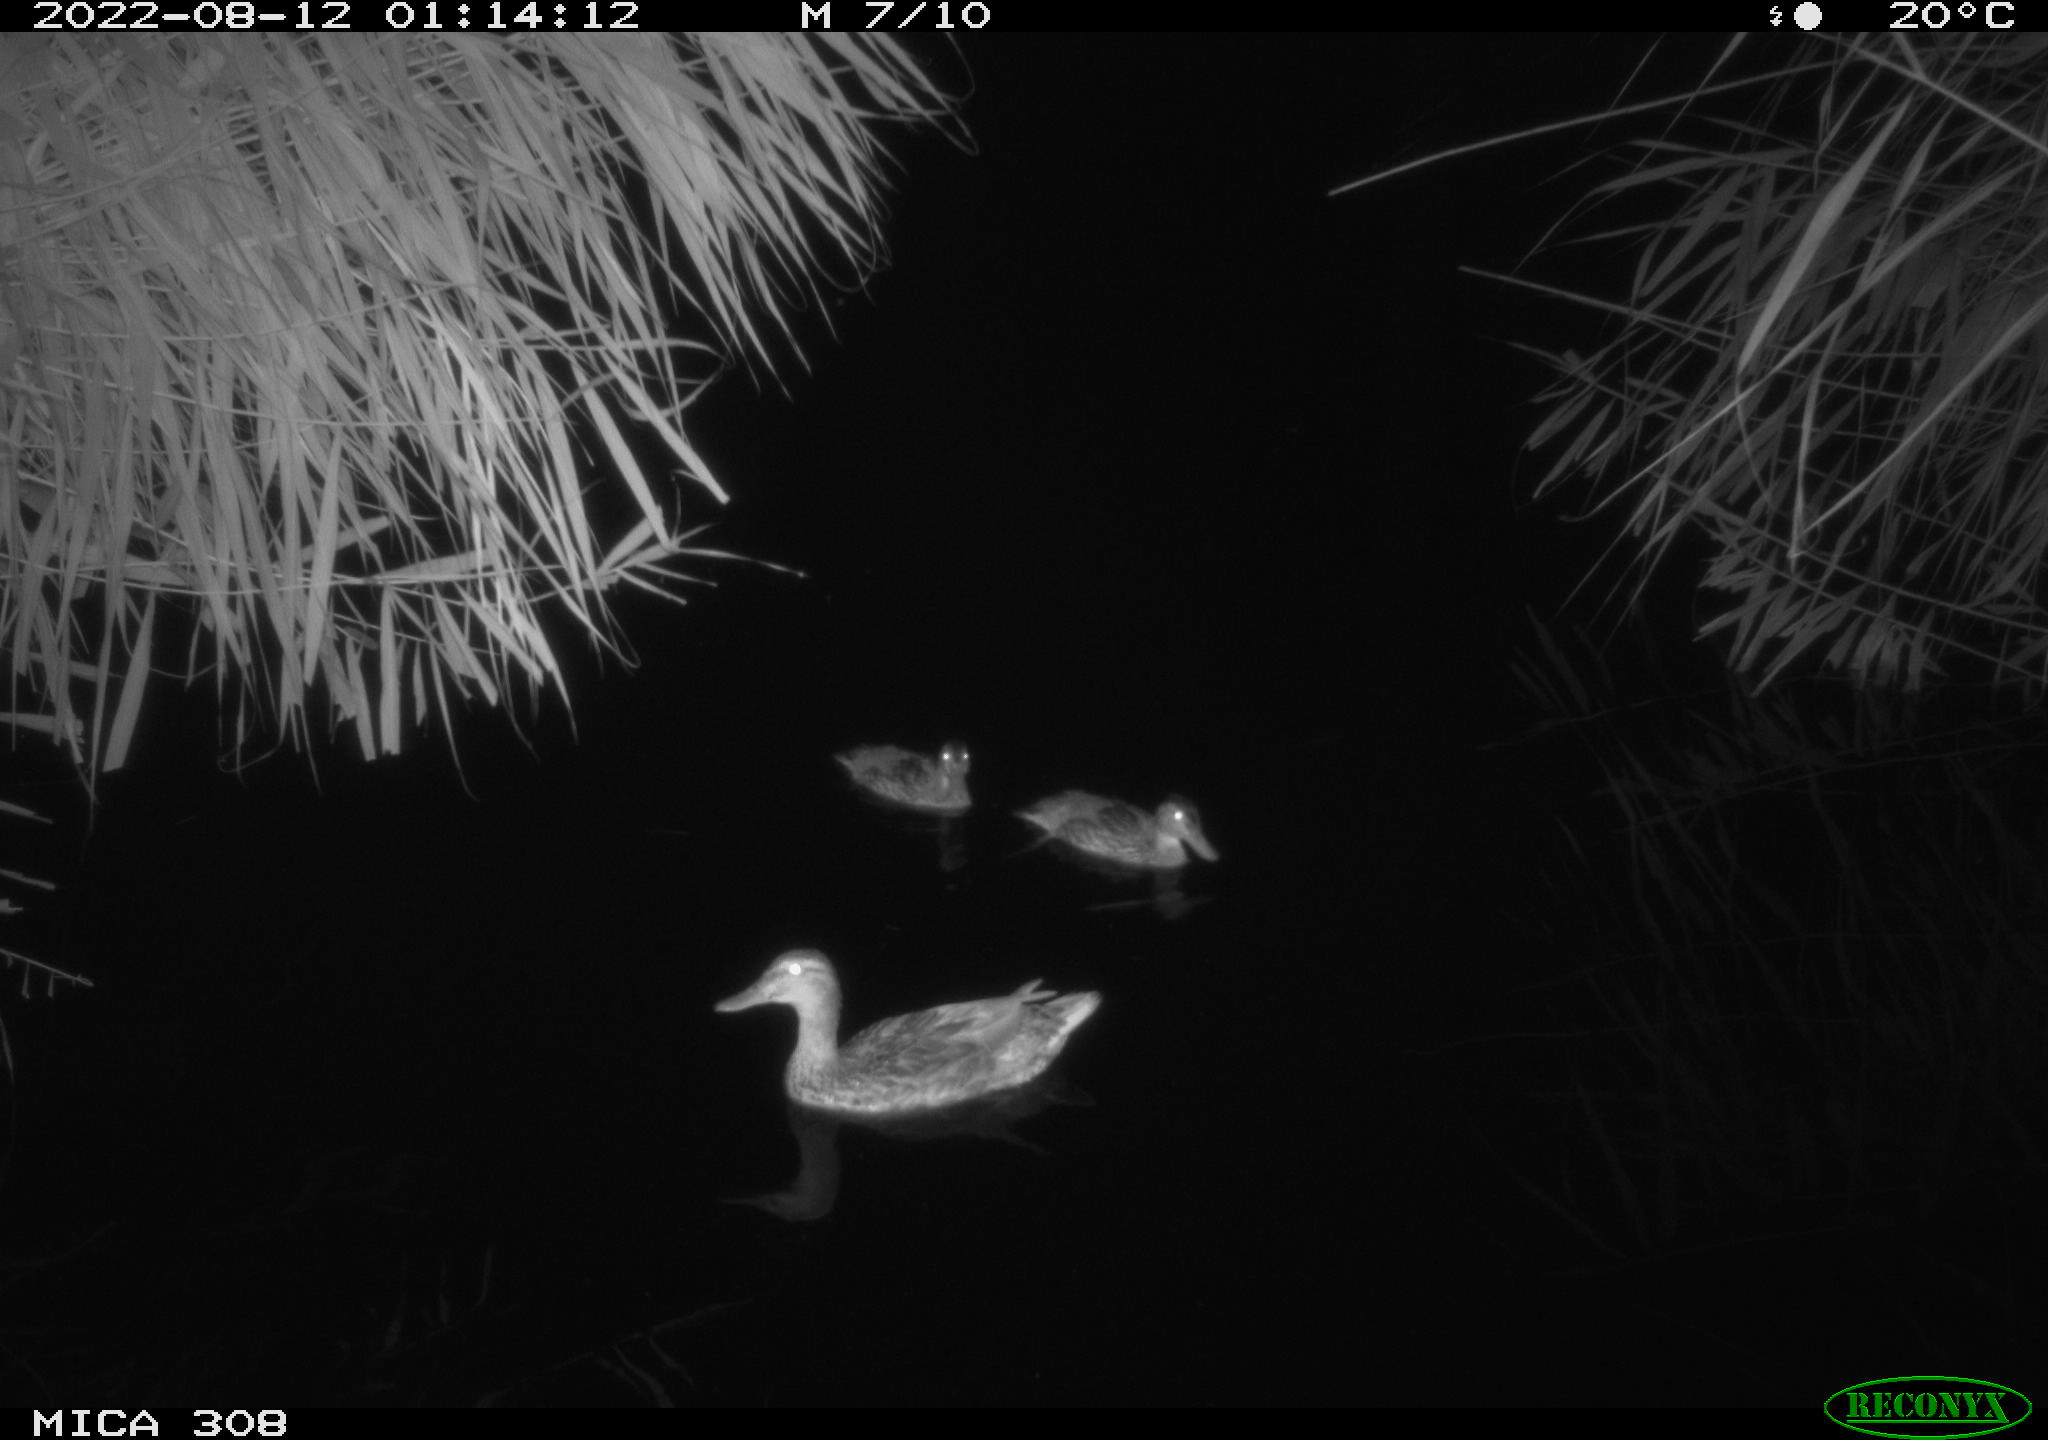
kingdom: Animalia
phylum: Chordata
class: Aves
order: Anseriformes
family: Anatidae
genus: Anas
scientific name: Anas platyrhynchos
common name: Mallard
